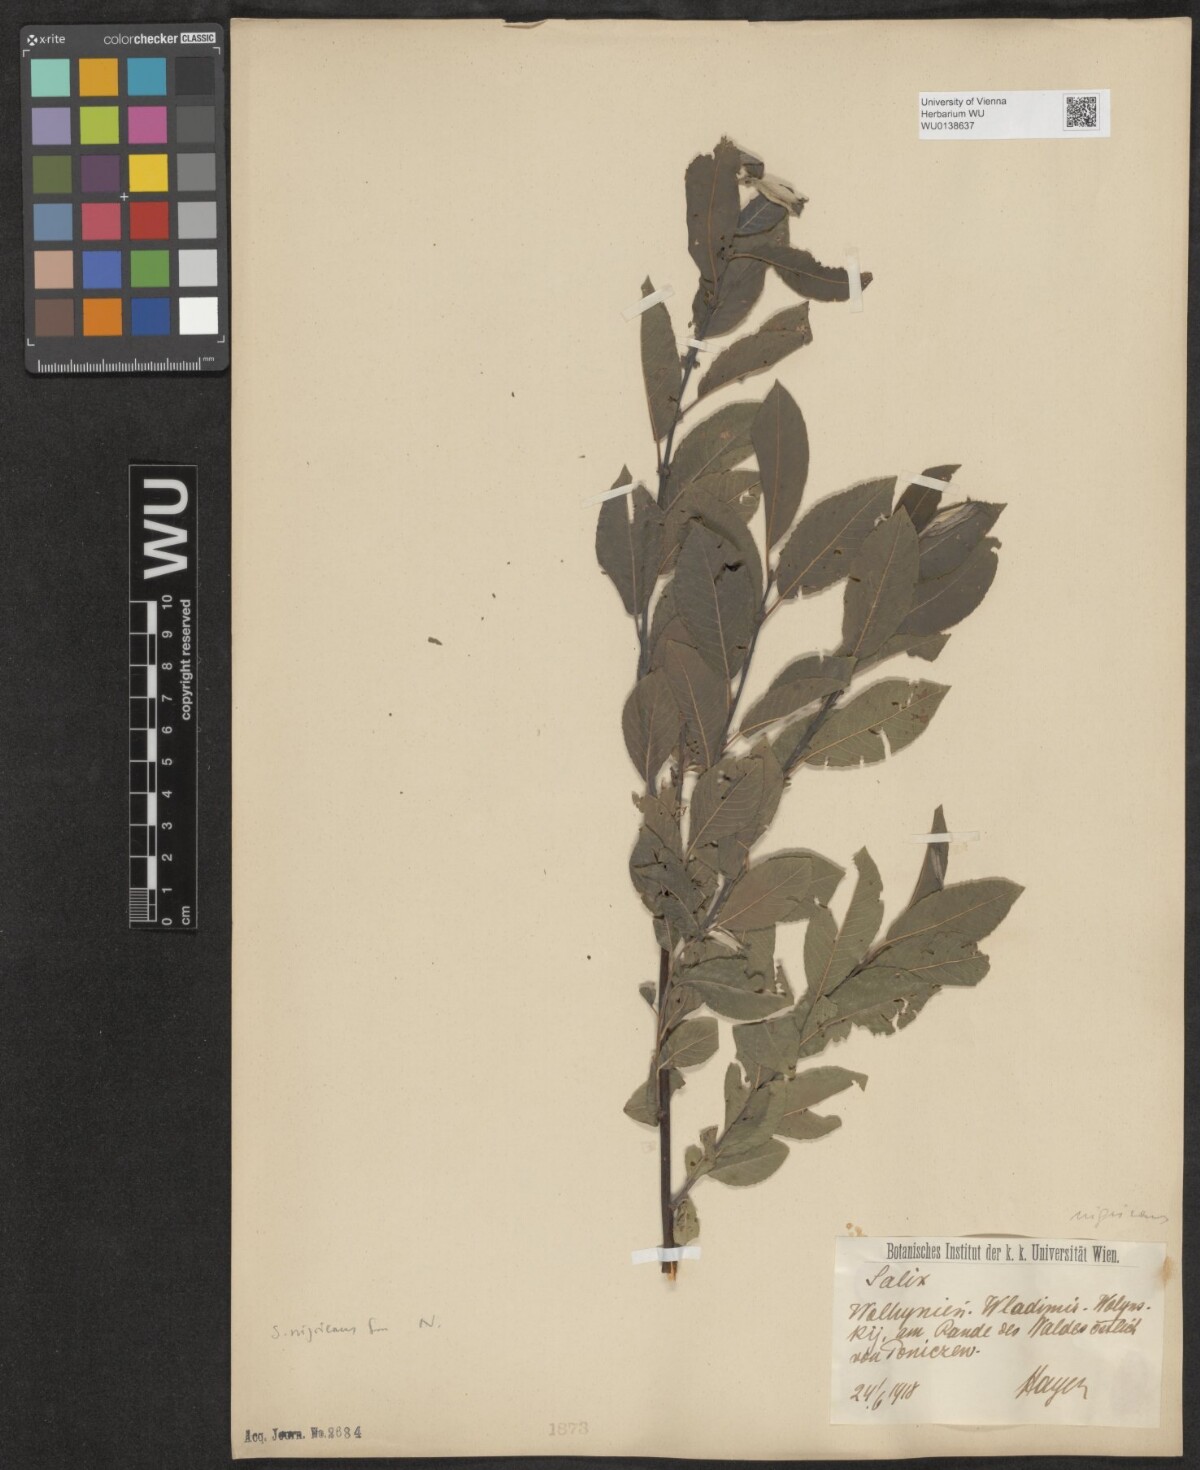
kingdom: Plantae
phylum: Tracheophyta
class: Magnoliopsida
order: Malpighiales
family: Salicaceae
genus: Salix
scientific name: Salix myrsinifolia
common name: Dark-leaved willow
